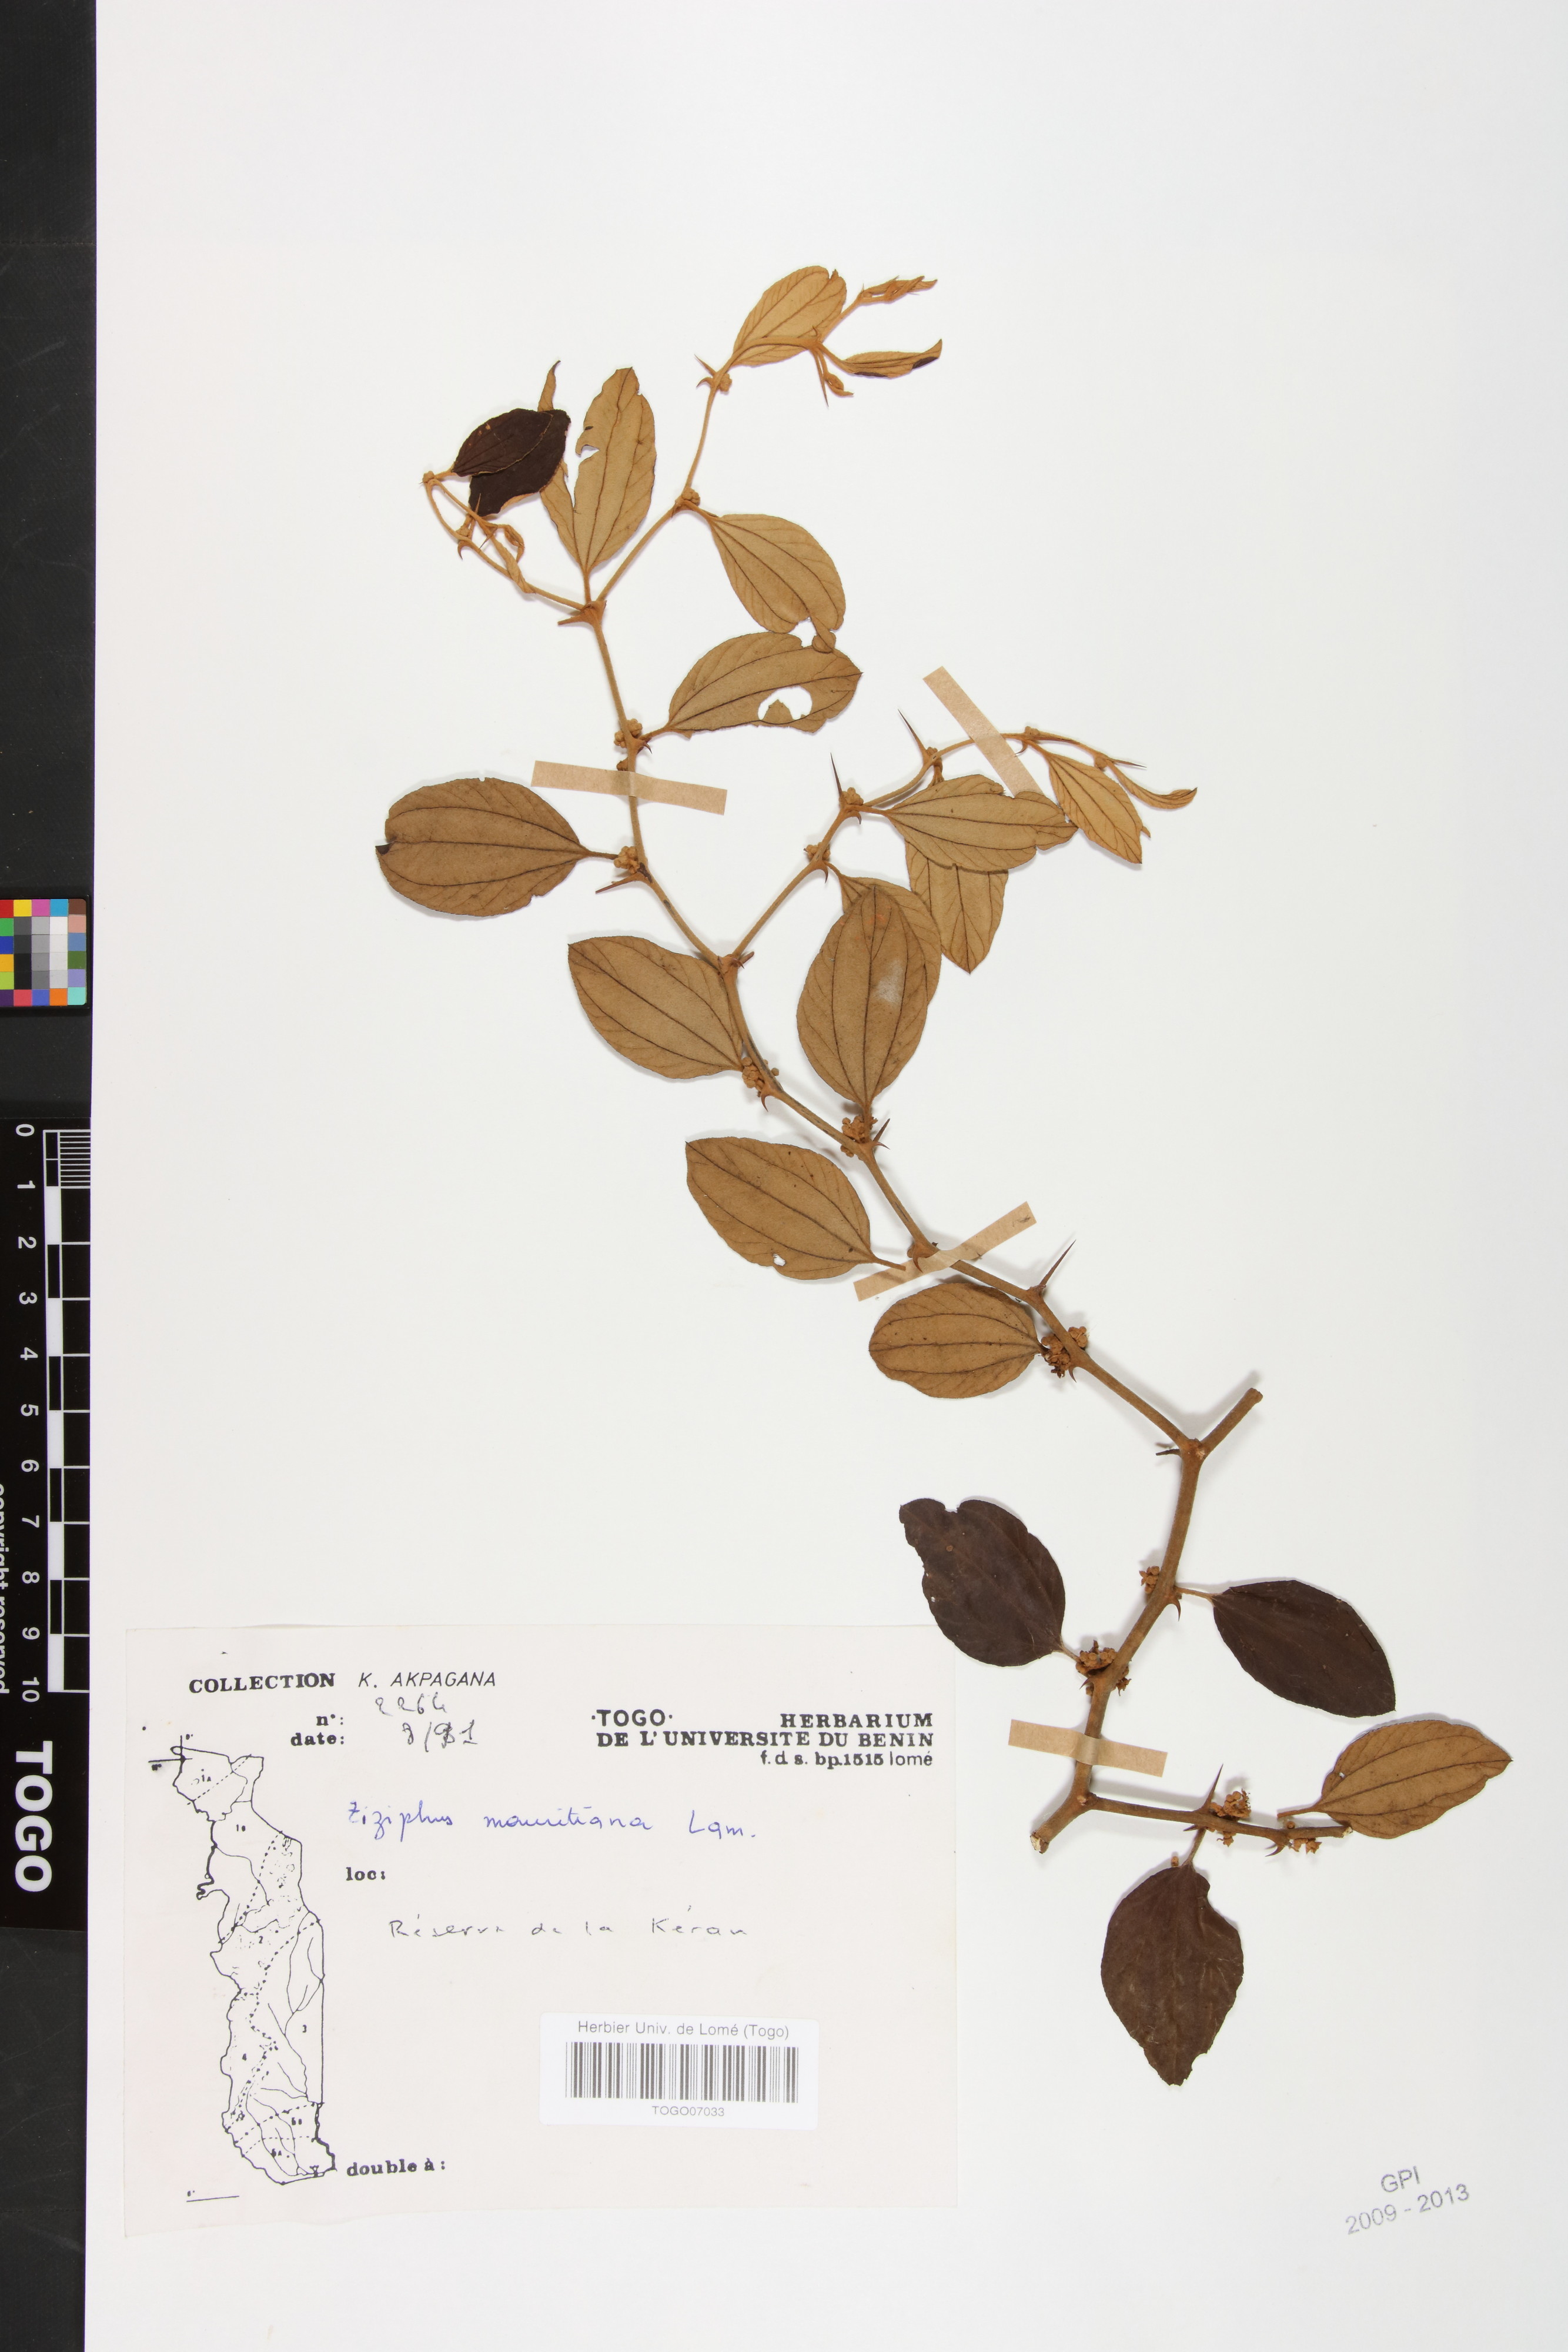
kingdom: Plantae
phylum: Tracheophyta
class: Magnoliopsida
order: Rosales
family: Rhamnaceae
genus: Ziziphus
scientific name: Ziziphus mauritiana
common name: Indian jujube
